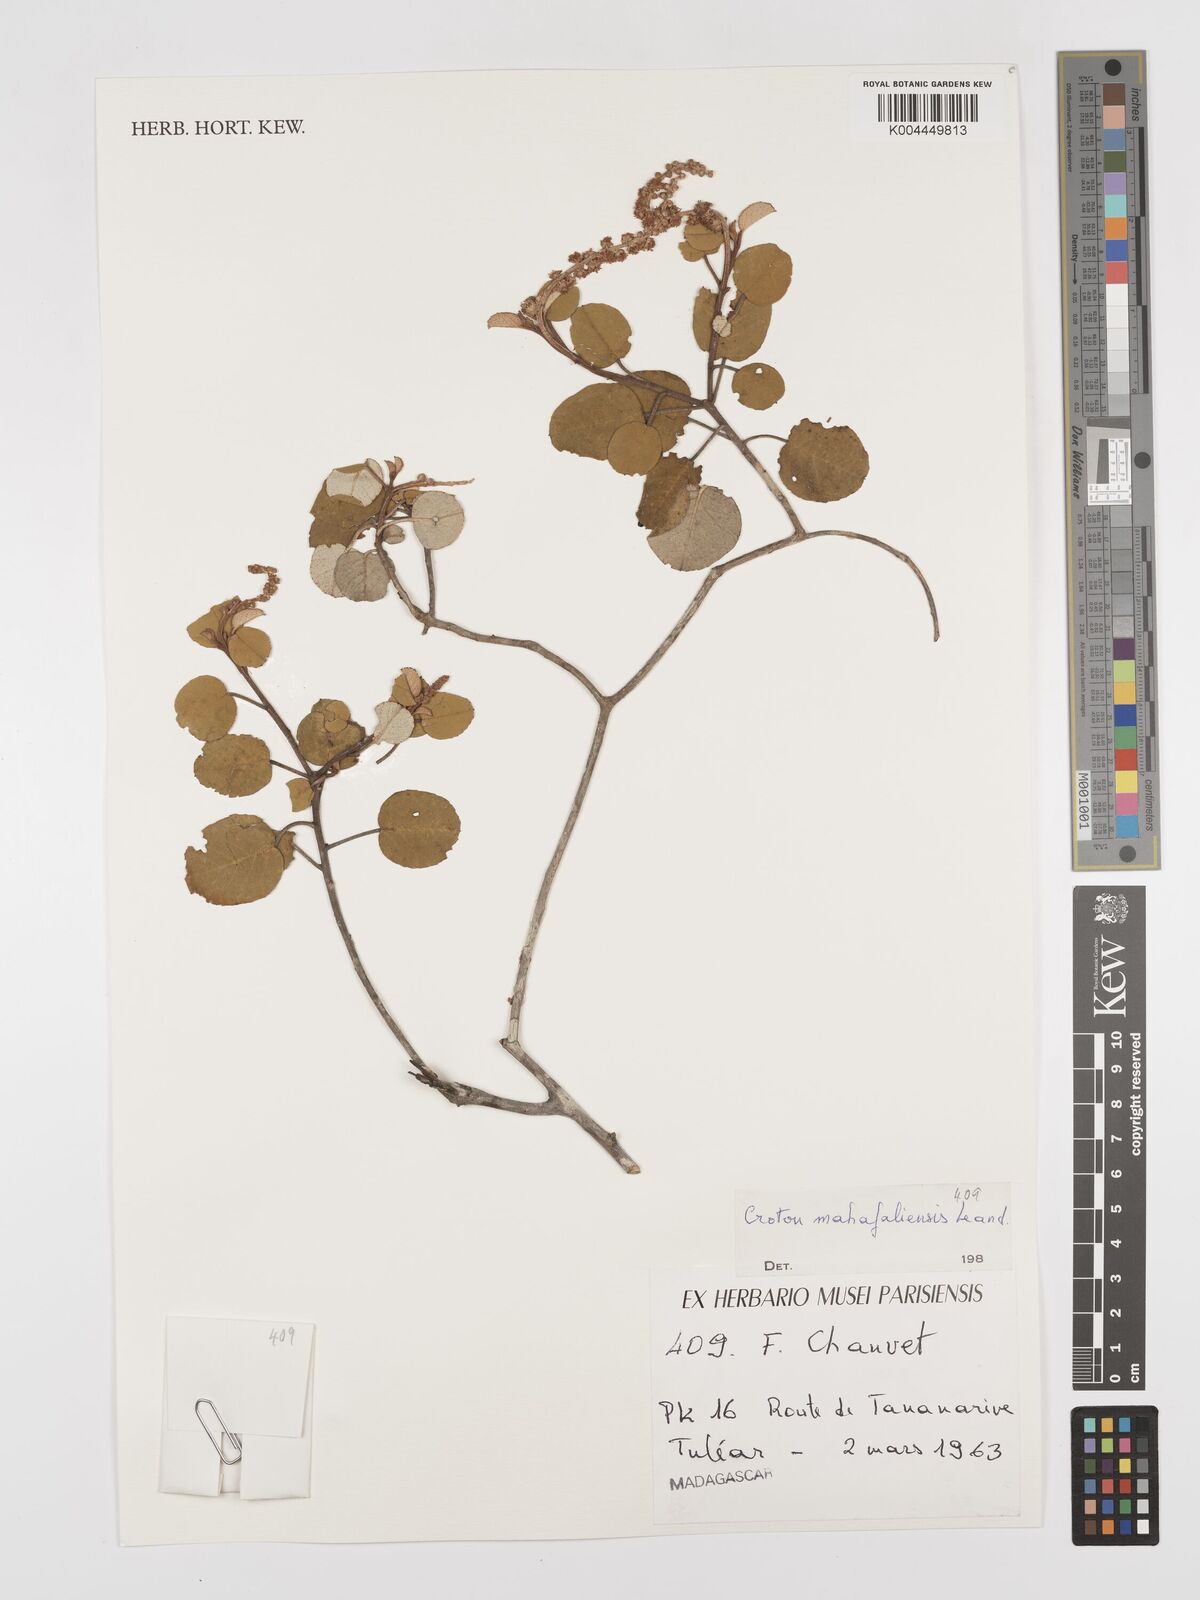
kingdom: Plantae
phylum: Tracheophyta
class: Magnoliopsida
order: Malpighiales
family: Euphorbiaceae
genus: Croton
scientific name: Croton cotoneaster
